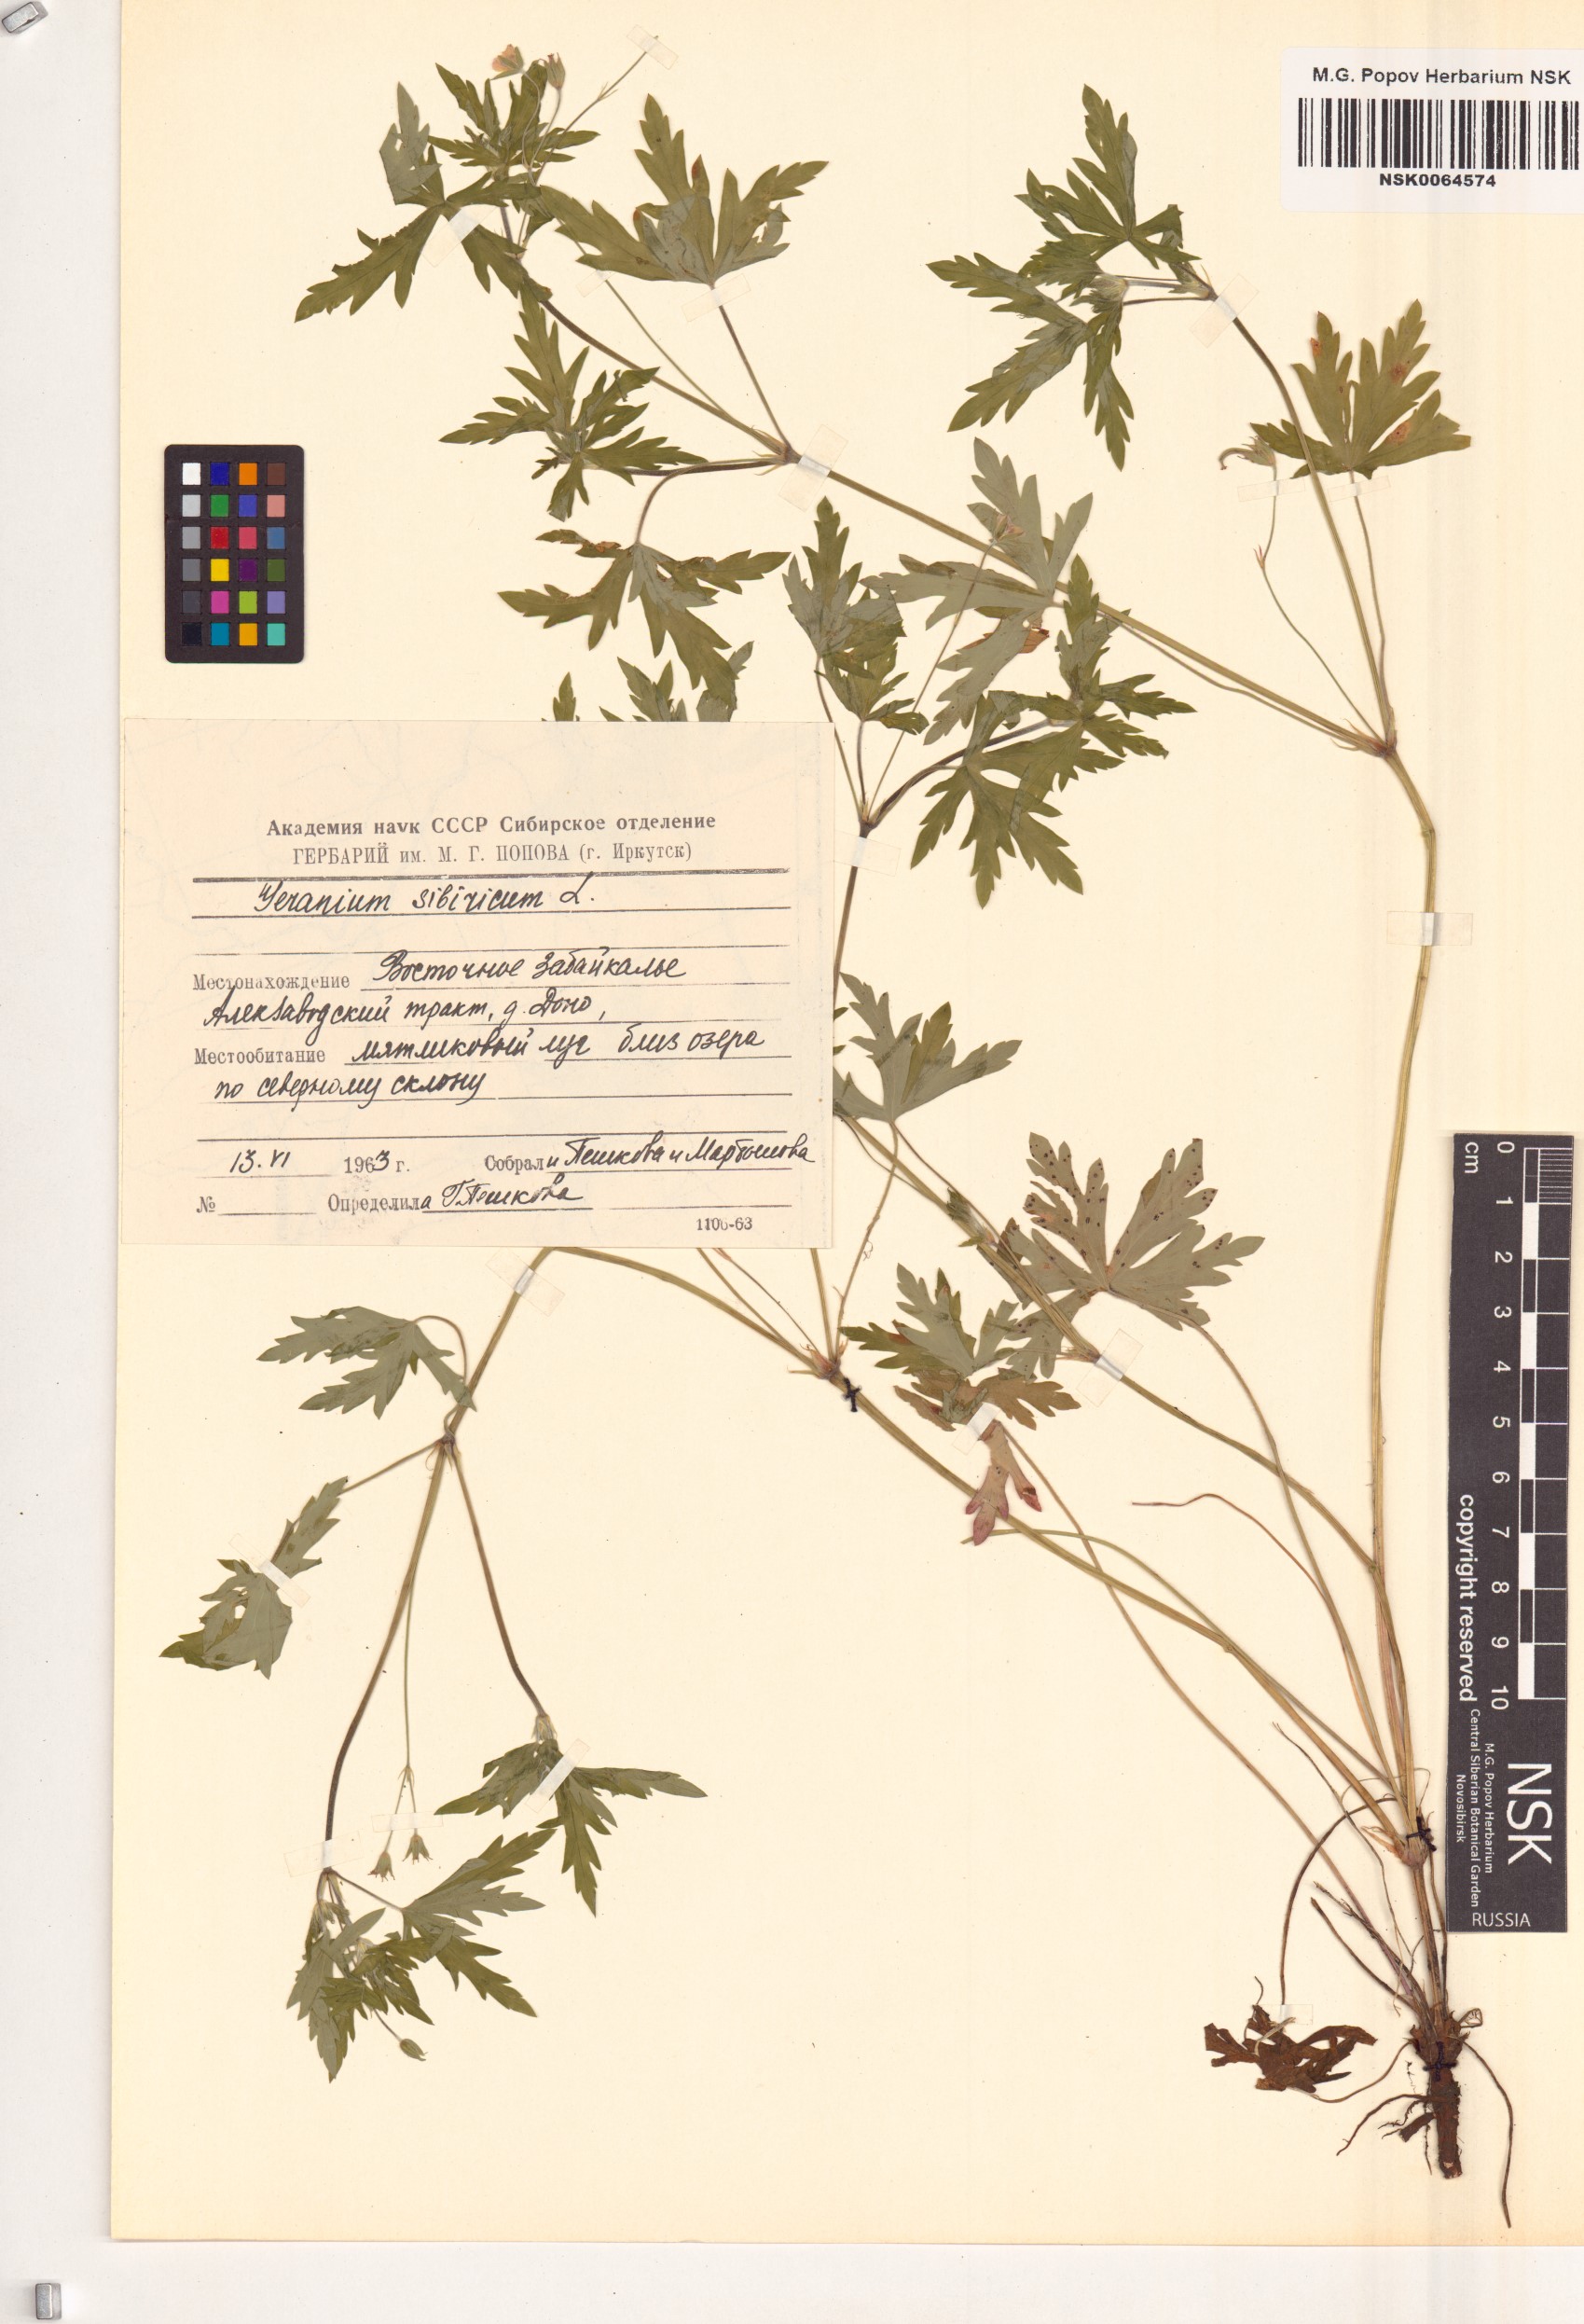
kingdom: Plantae
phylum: Tracheophyta
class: Magnoliopsida
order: Geraniales
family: Geraniaceae
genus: Geranium
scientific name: Geranium sibiricum
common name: Siberian crane's-bill
